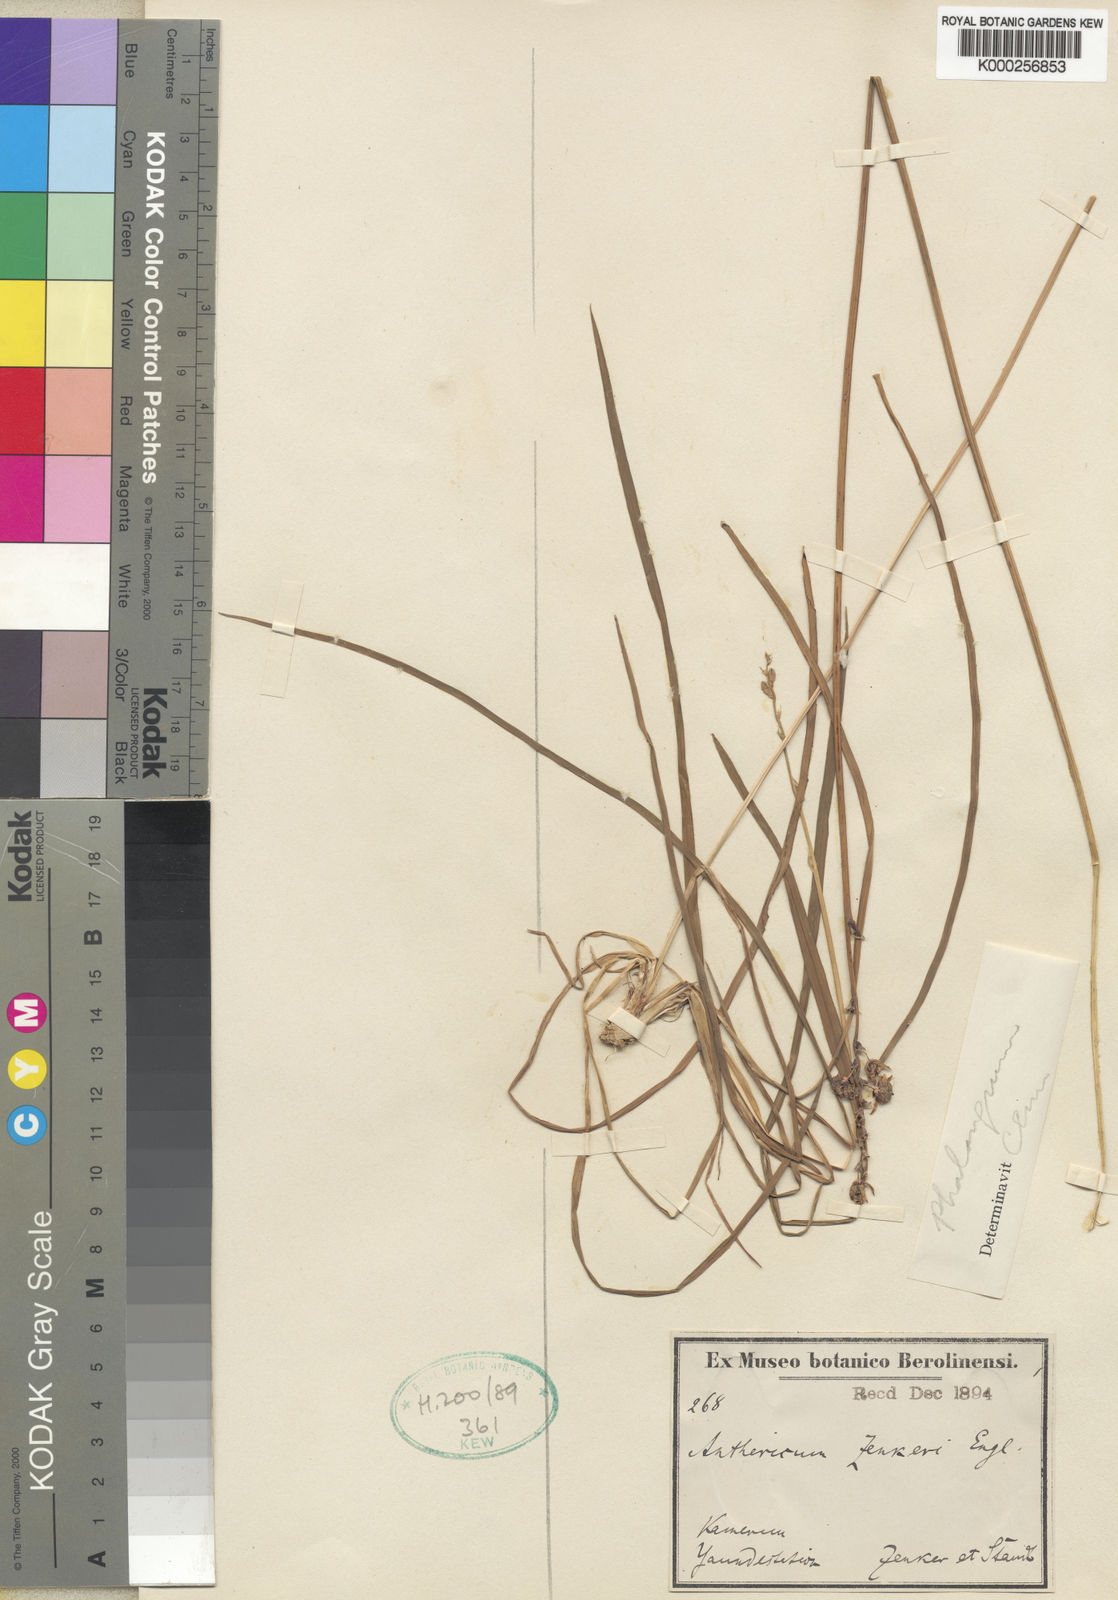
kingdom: Plantae
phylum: Tracheophyta
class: Liliopsida
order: Asparagales
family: Asparagaceae
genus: Chlorophytum
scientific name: Chlorophytum orchidastrum
